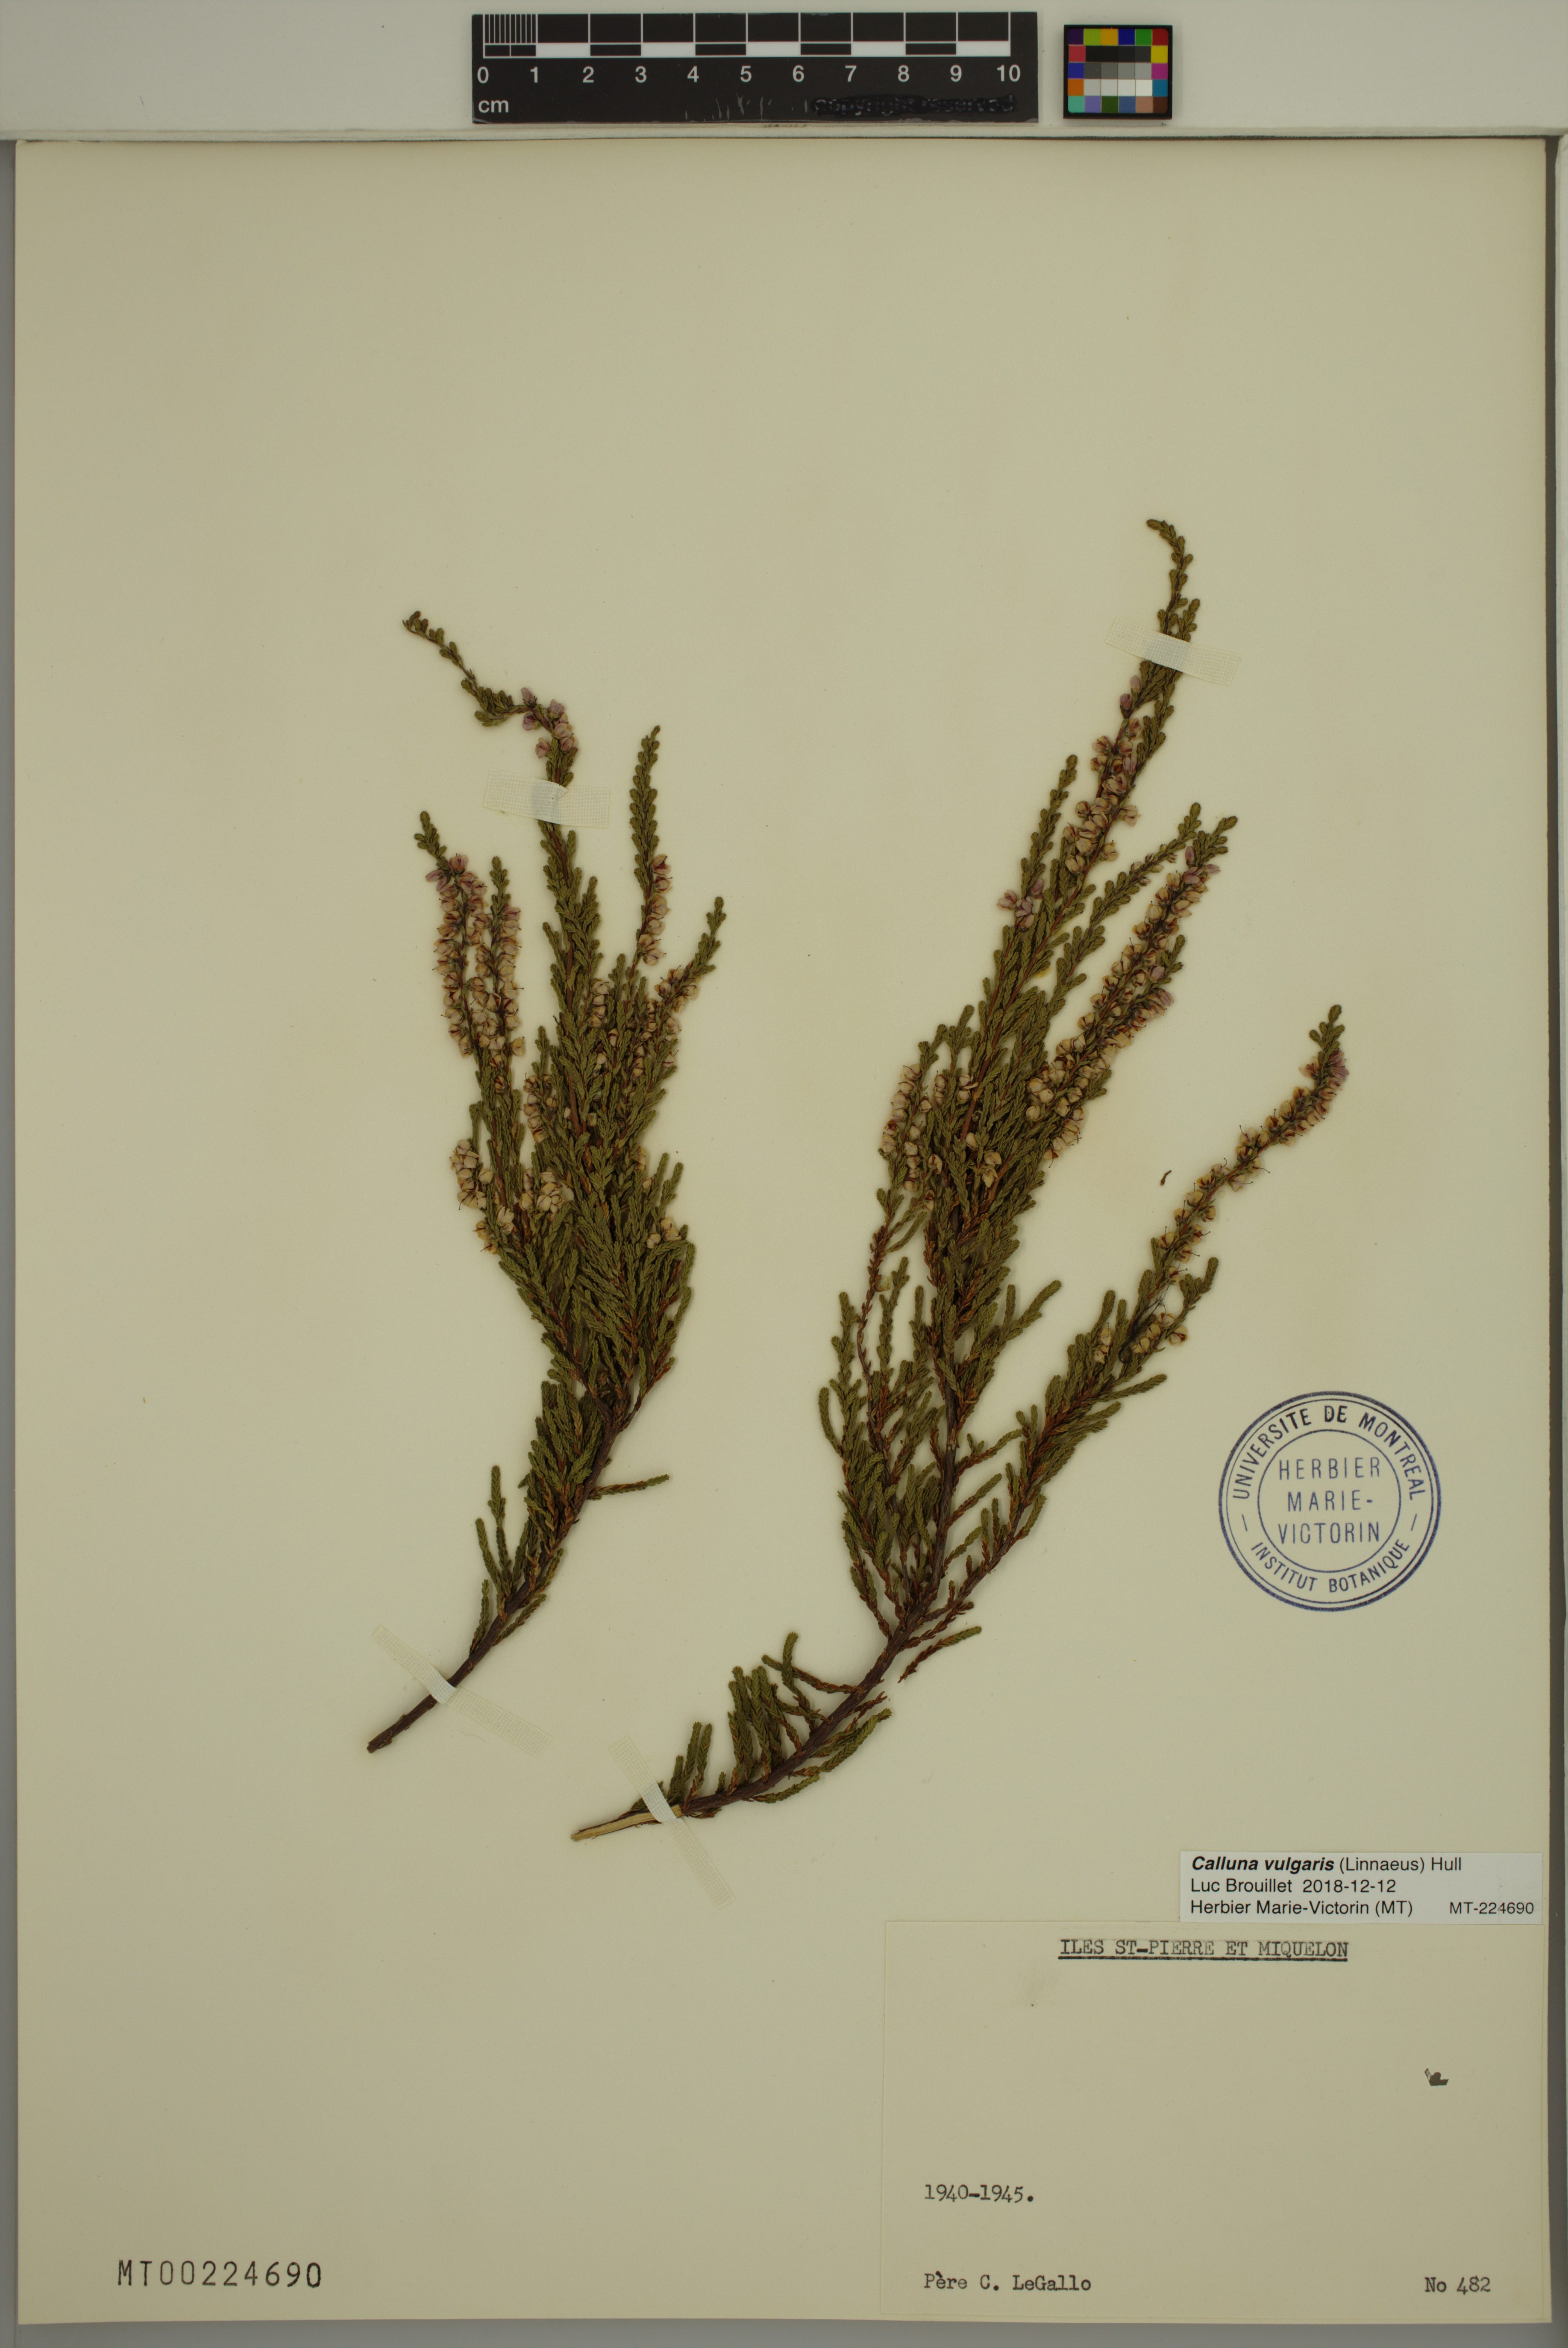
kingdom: Plantae
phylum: Tracheophyta
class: Magnoliopsida
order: Ericales
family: Ericaceae
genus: Calluna
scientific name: Calluna vulgaris
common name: Heather
